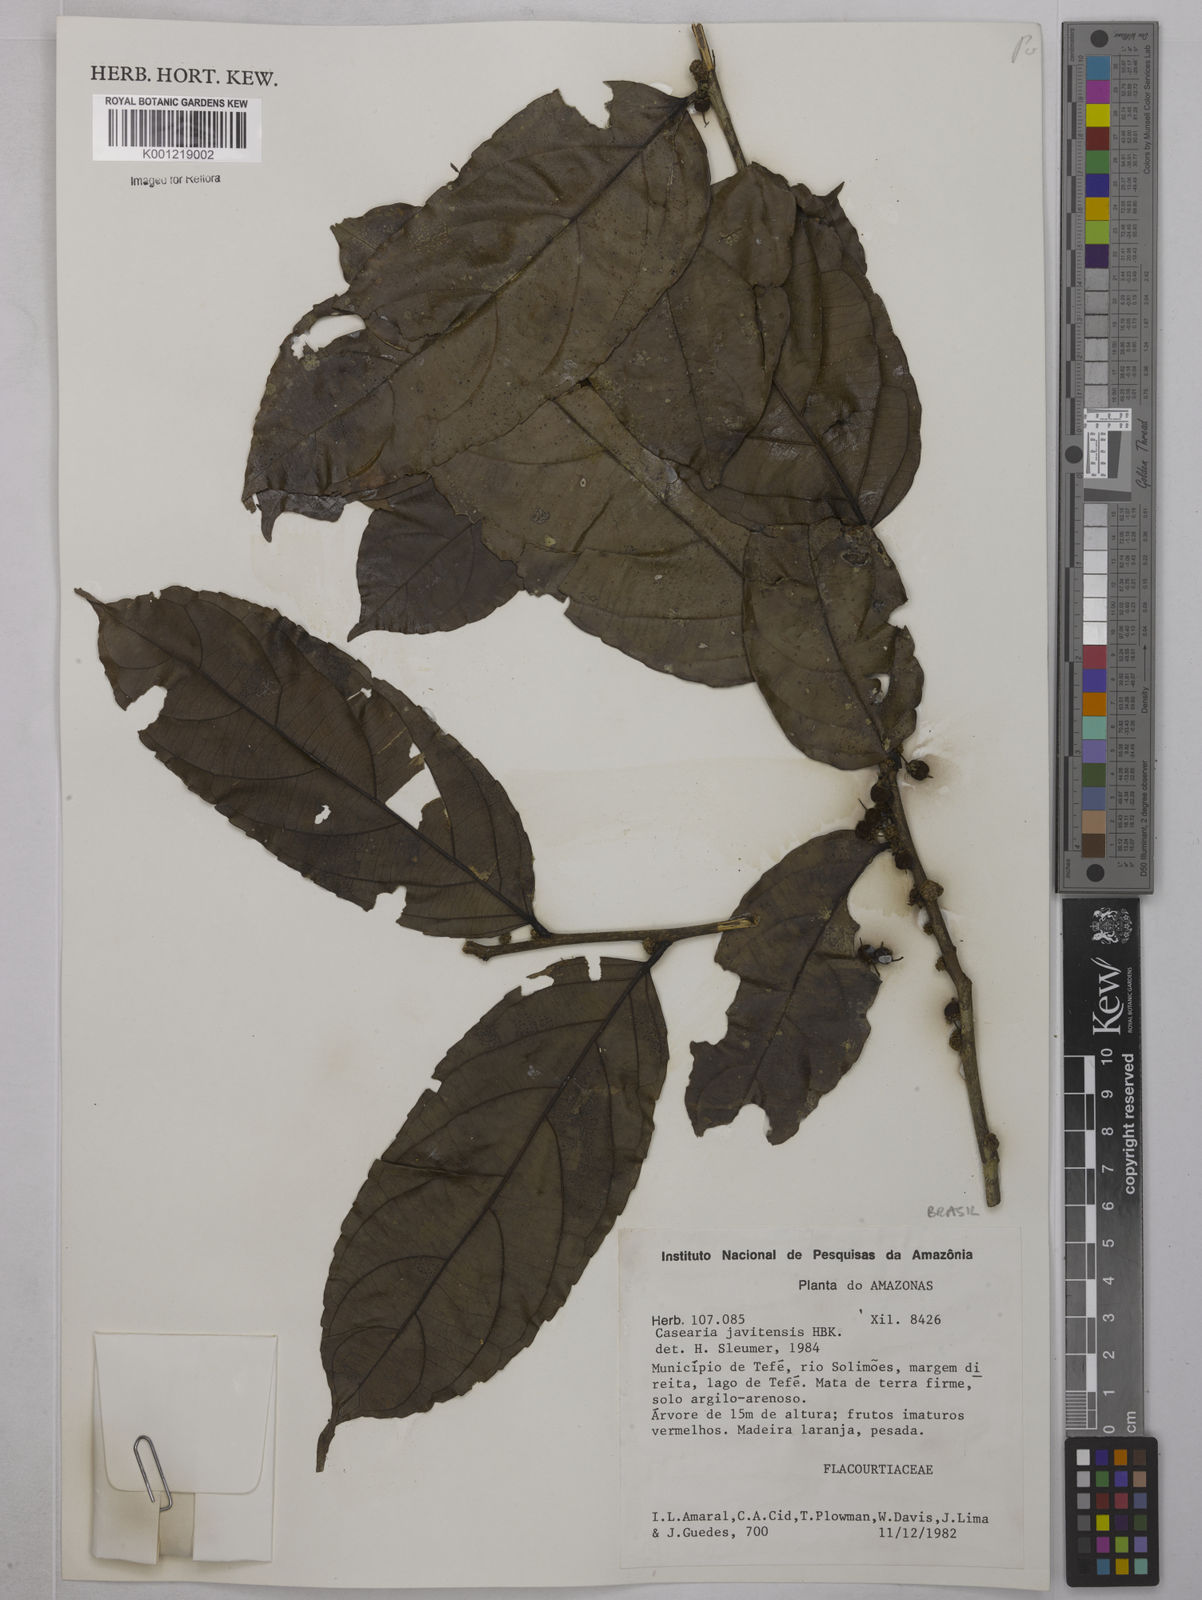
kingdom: Plantae
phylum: Tracheophyta
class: Magnoliopsida
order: Malpighiales
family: Salicaceae
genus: Piparea
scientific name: Piparea multiflora
